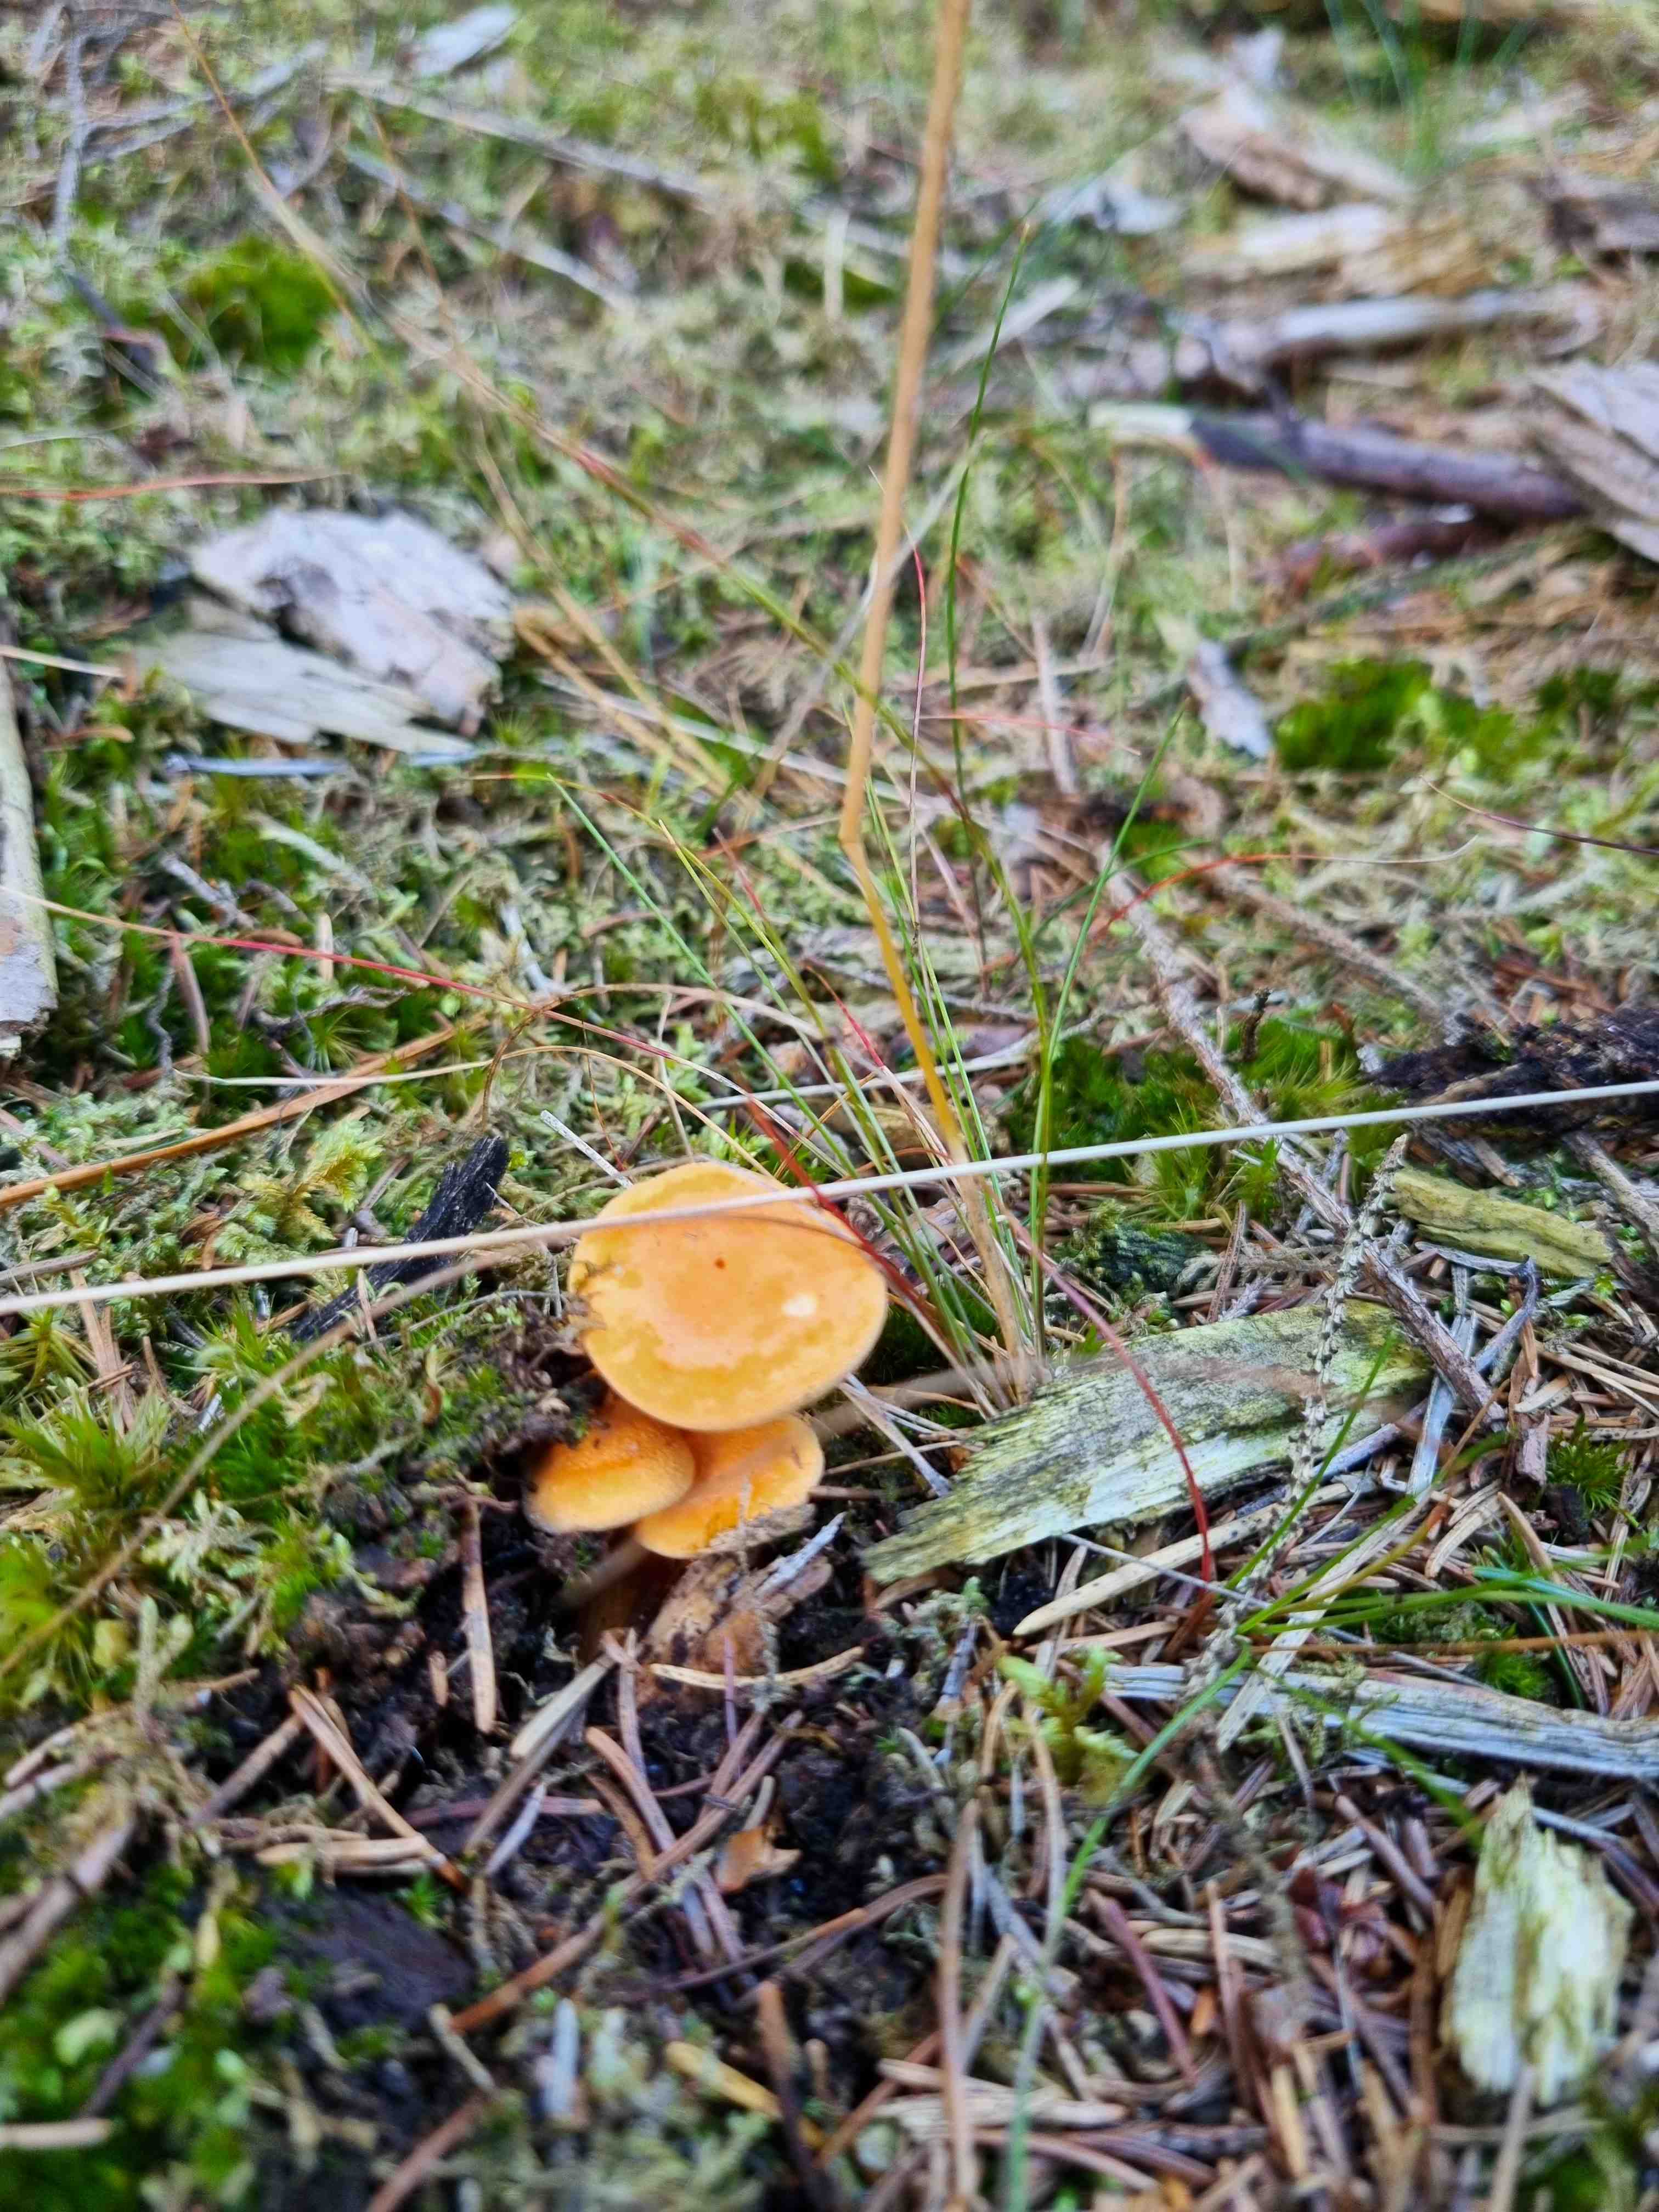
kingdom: Fungi
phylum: Basidiomycota
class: Agaricomycetes
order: Boletales
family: Hygrophoropsidaceae
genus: Hygrophoropsis
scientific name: Hygrophoropsis aurantiaca
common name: almindelig orangekantarel
